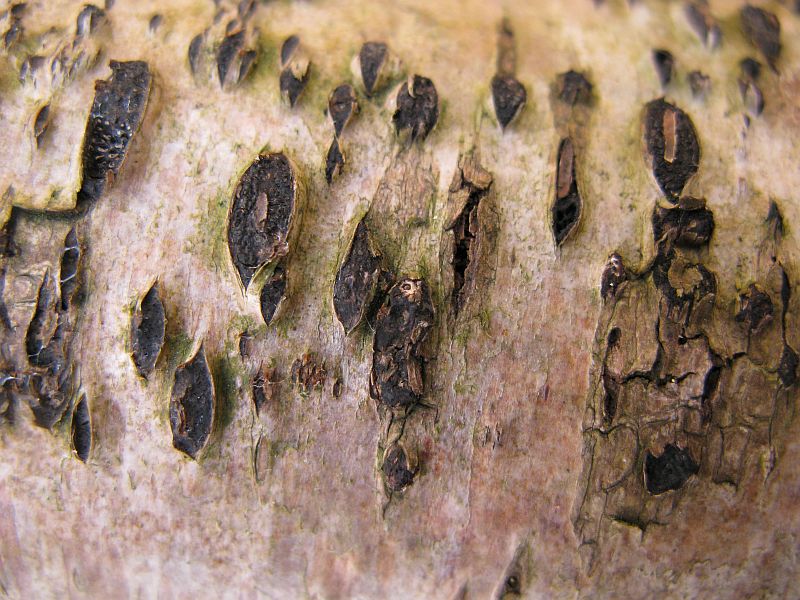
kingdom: Fungi
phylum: Ascomycota
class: Sordariomycetes
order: Xylariales
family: Diatrypaceae
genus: Diatrypella
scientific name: Diatrypella favacea
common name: Birch blackhead
